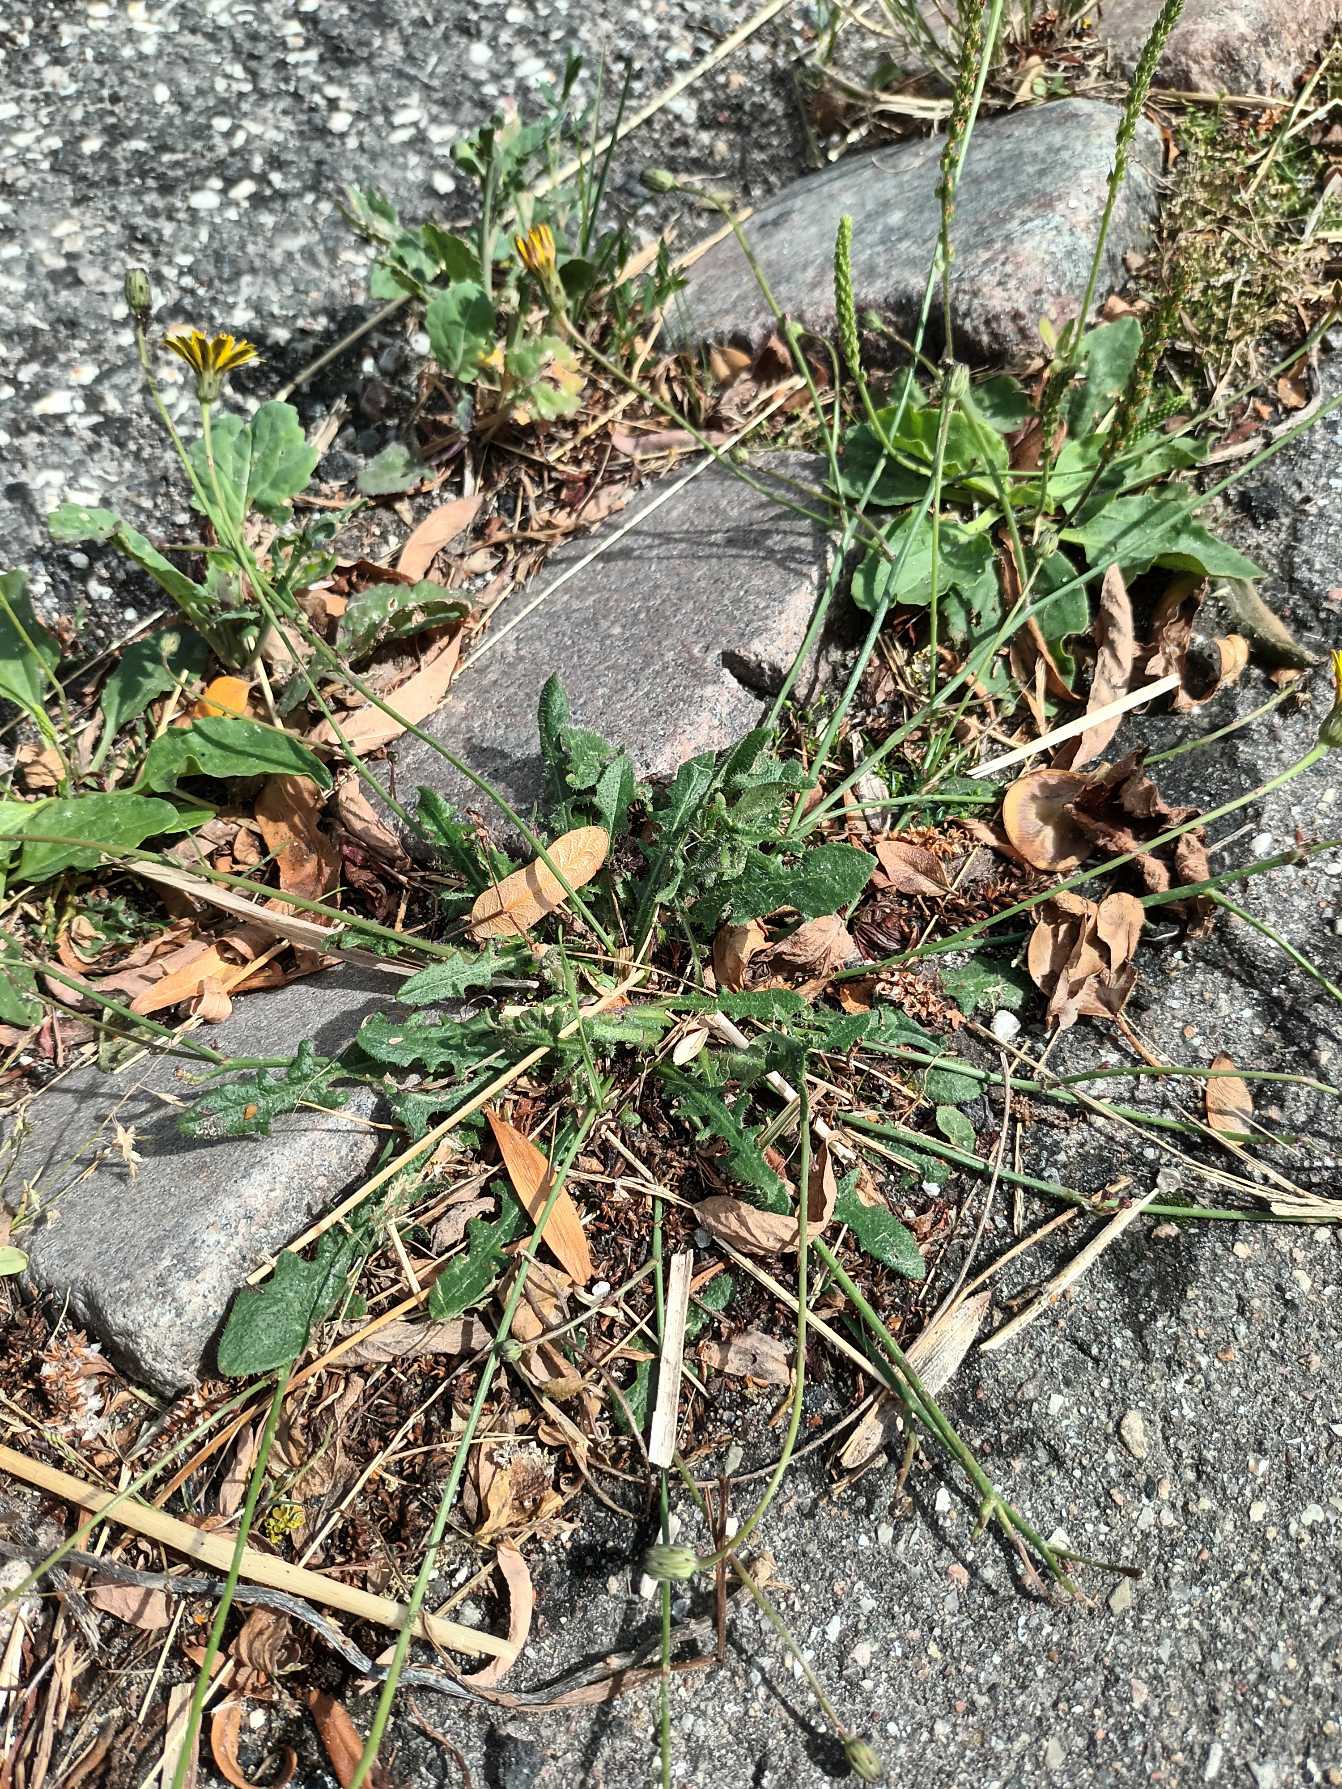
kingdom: Plantae
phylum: Tracheophyta
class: Magnoliopsida
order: Asterales
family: Asteraceae
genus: Hypochaeris
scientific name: Hypochaeris radicata
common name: Almindelig kongepen
